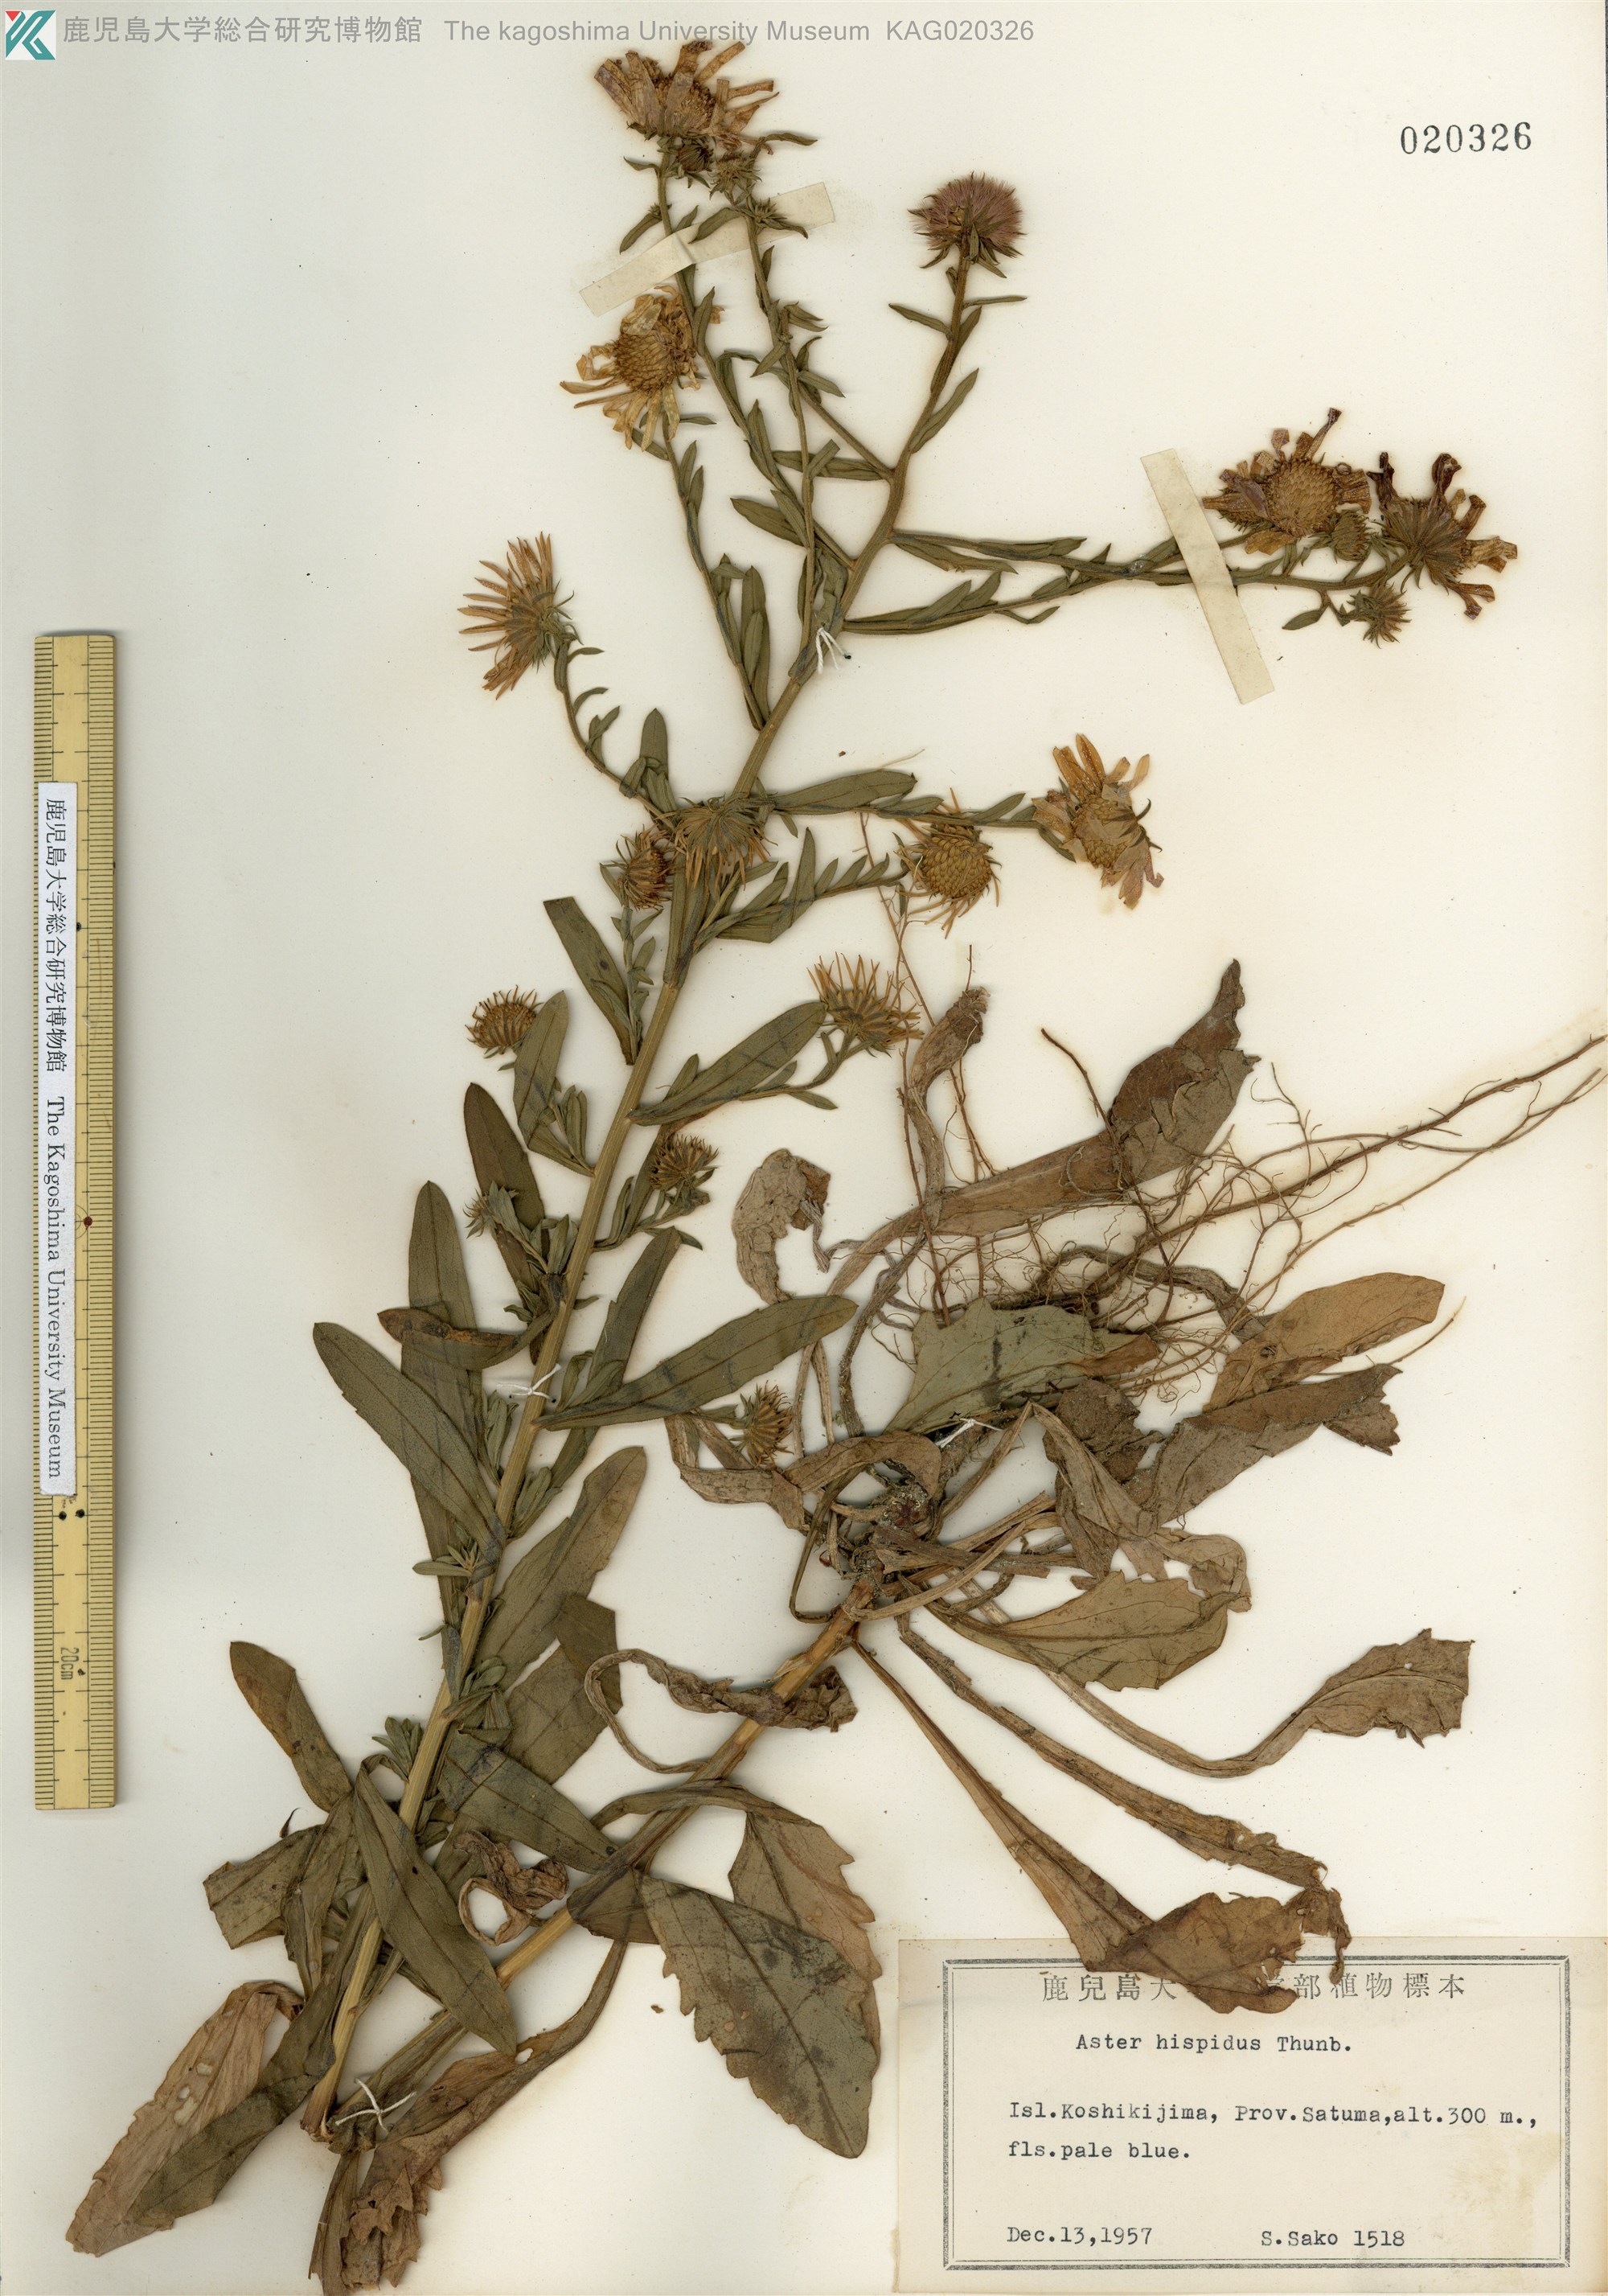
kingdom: Plantae
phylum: Tracheophyta
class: Magnoliopsida
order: Asterales
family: Asteraceae
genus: Heteropappus
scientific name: Heteropappus hispidus
